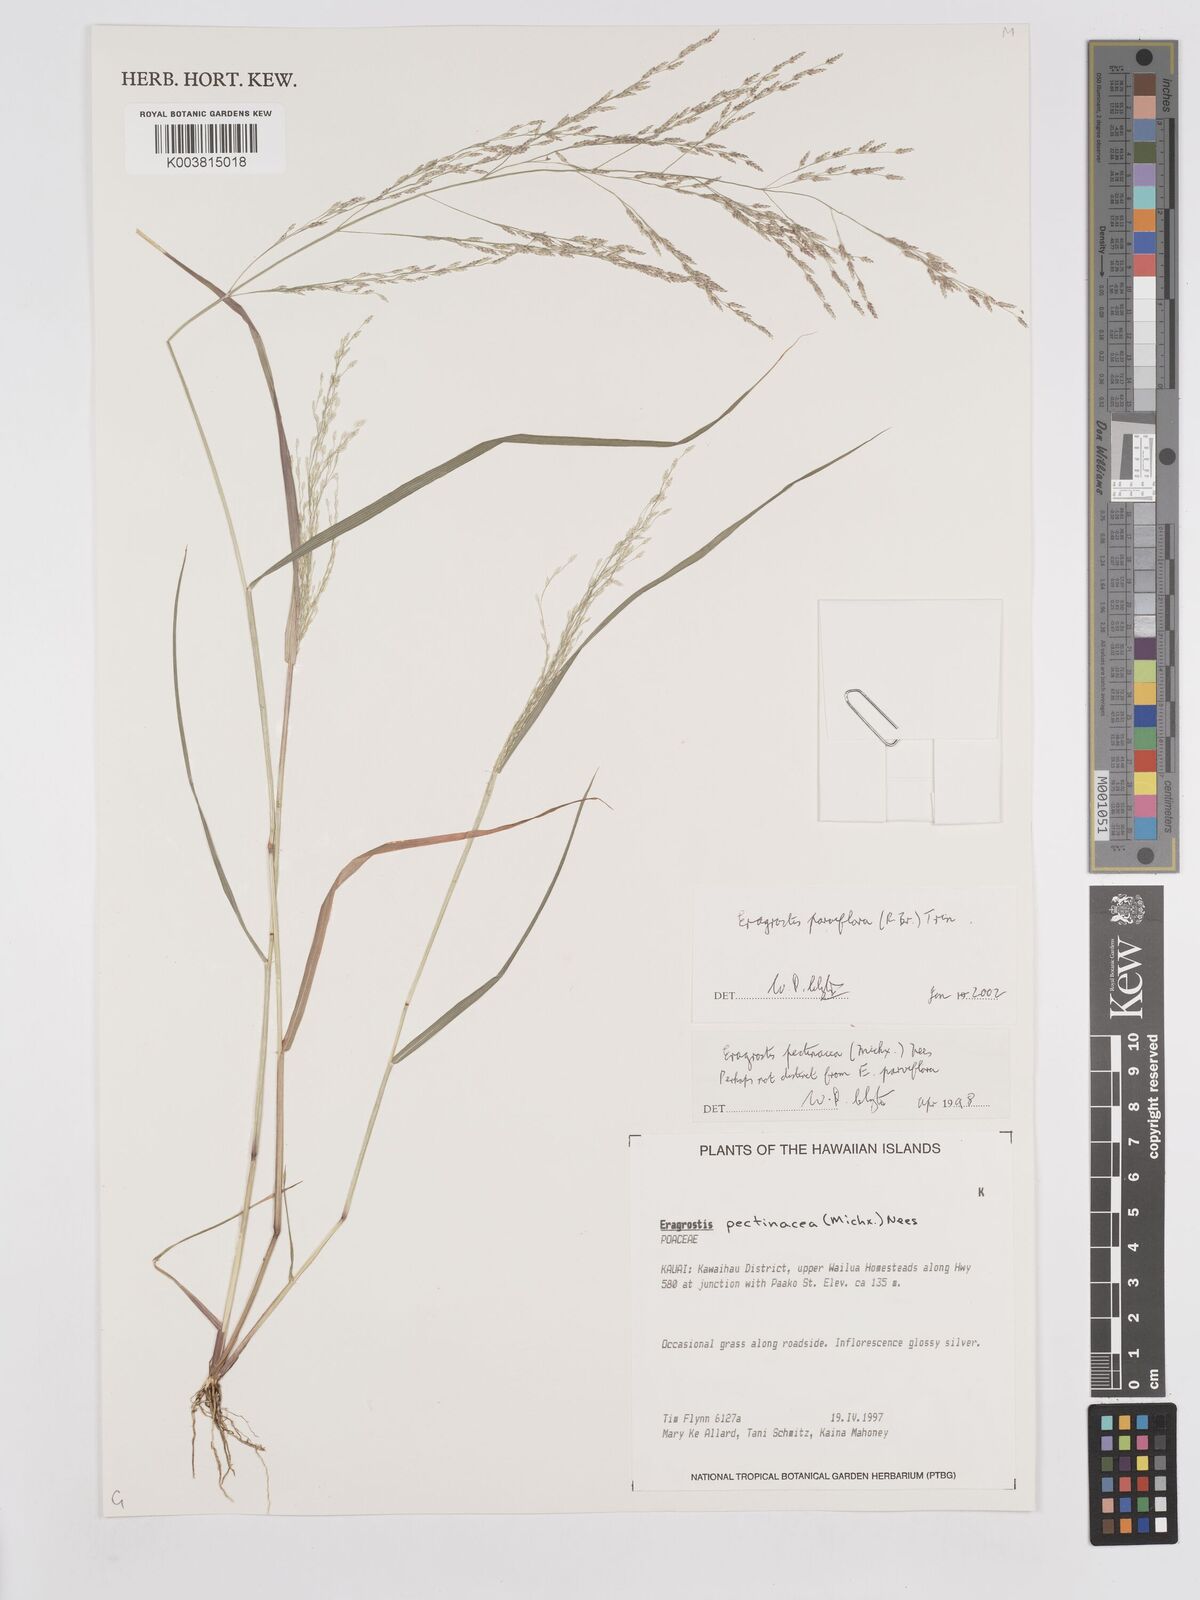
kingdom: Plantae
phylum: Tracheophyta
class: Liliopsida
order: Poales
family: Poaceae
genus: Eragrostis
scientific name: Eragrostis parviflora
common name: Weeping love-grass
